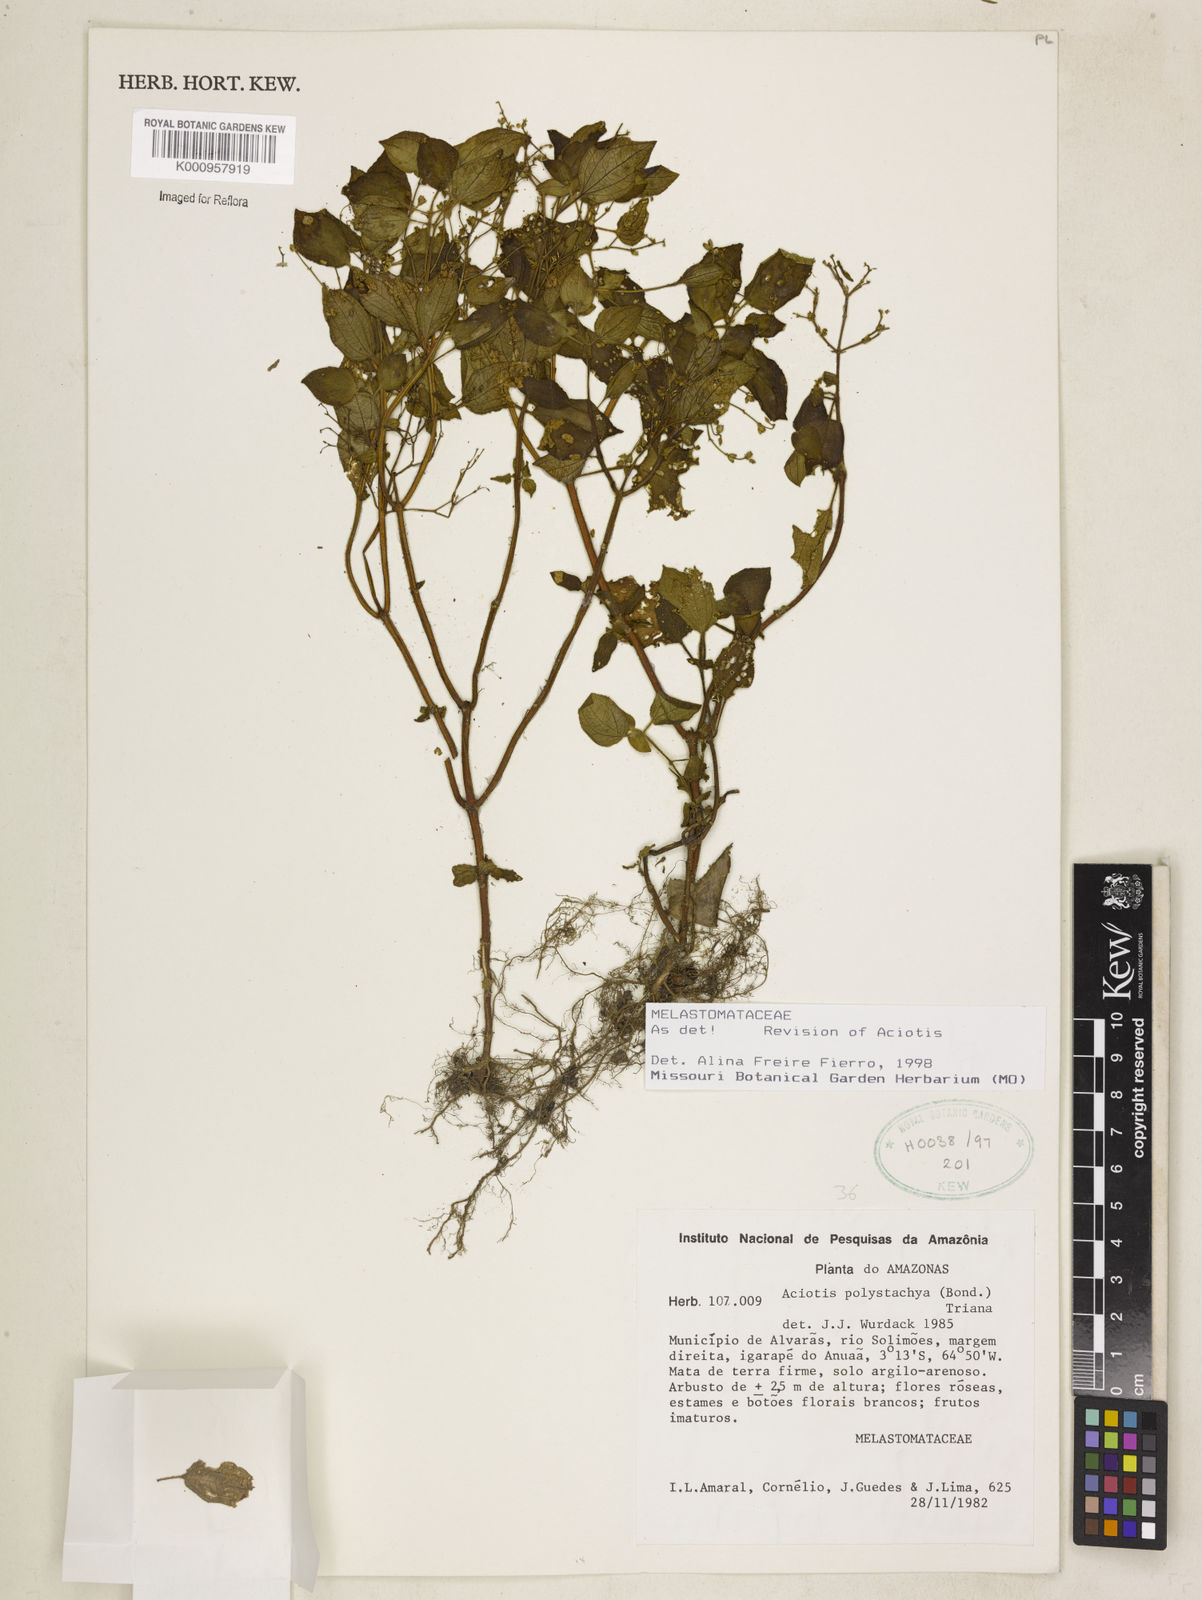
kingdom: Plantae
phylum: Tracheophyta
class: Magnoliopsida
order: Myrtales
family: Melastomataceae
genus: Aciotis
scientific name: Aciotis polystachya
